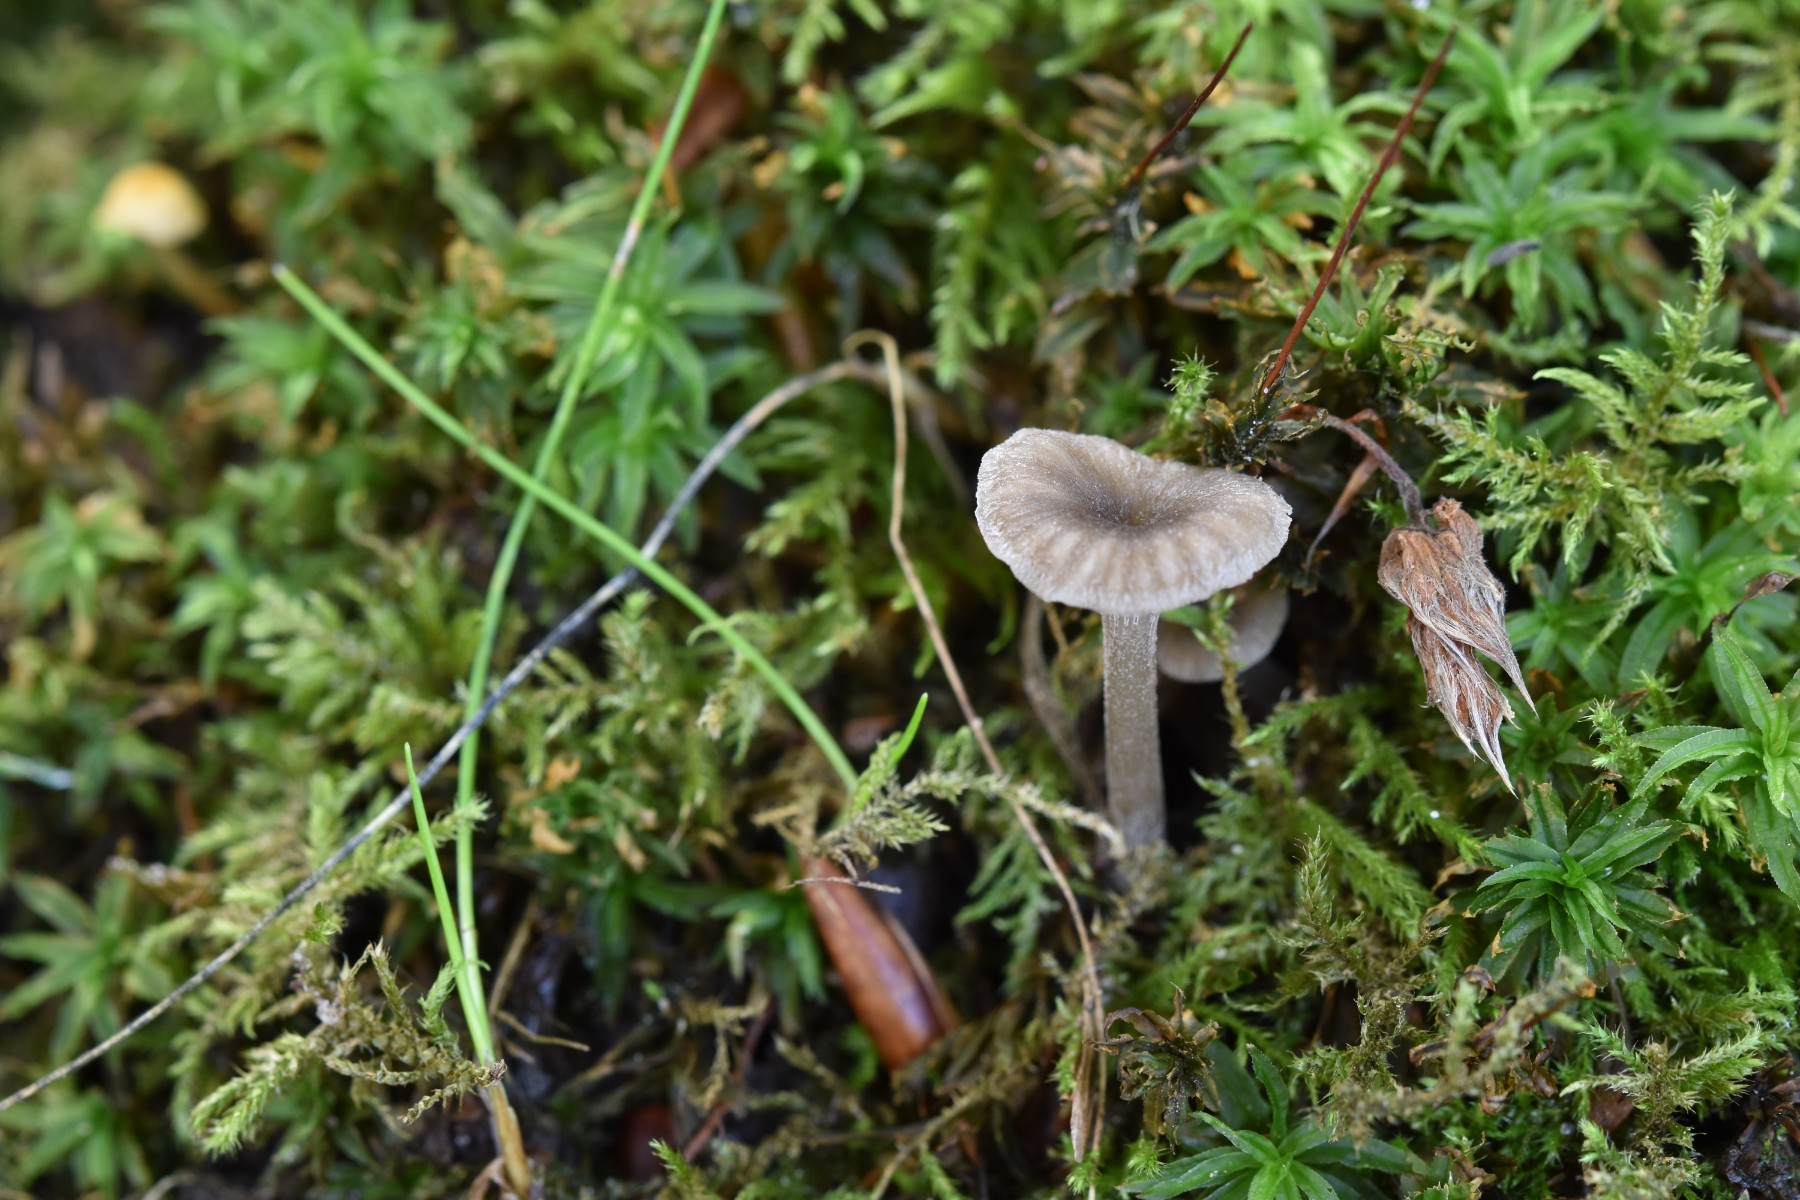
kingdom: Fungi
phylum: Basidiomycota
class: Agaricomycetes
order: Agaricales
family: Entolomataceae
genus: Entoloma
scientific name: Entoloma rhodocylix
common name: fjernbladet rødblad
